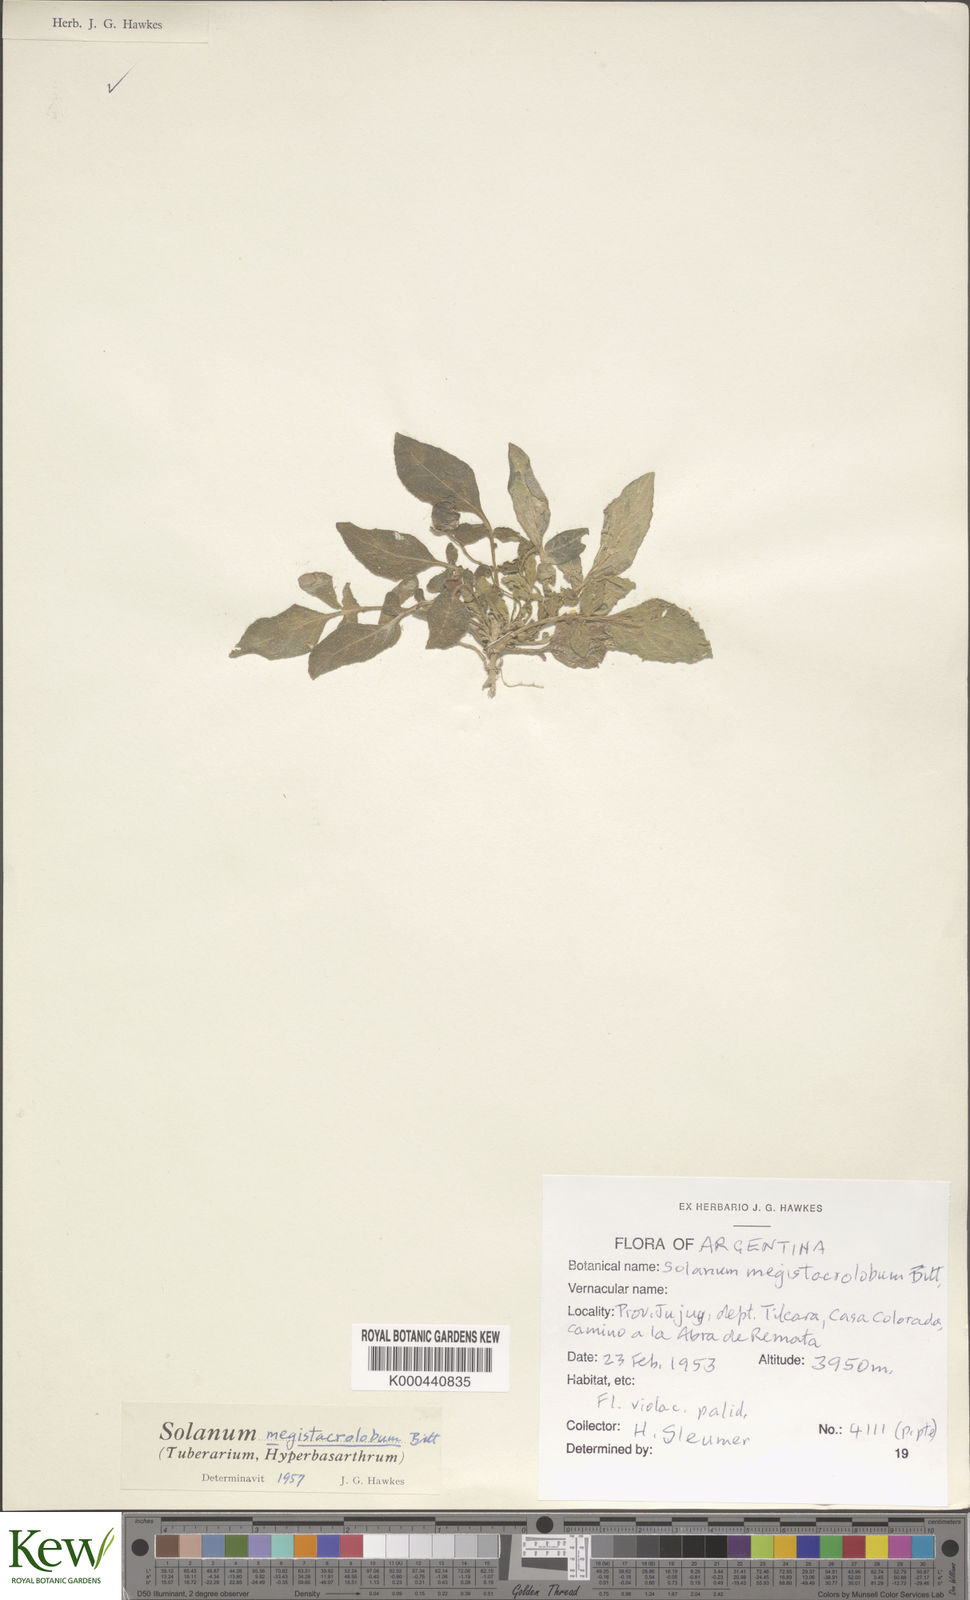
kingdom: Plantae
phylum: Tracheophyta
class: Magnoliopsida
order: Solanales
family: Solanaceae
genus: Solanum
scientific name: Solanum boliviense
